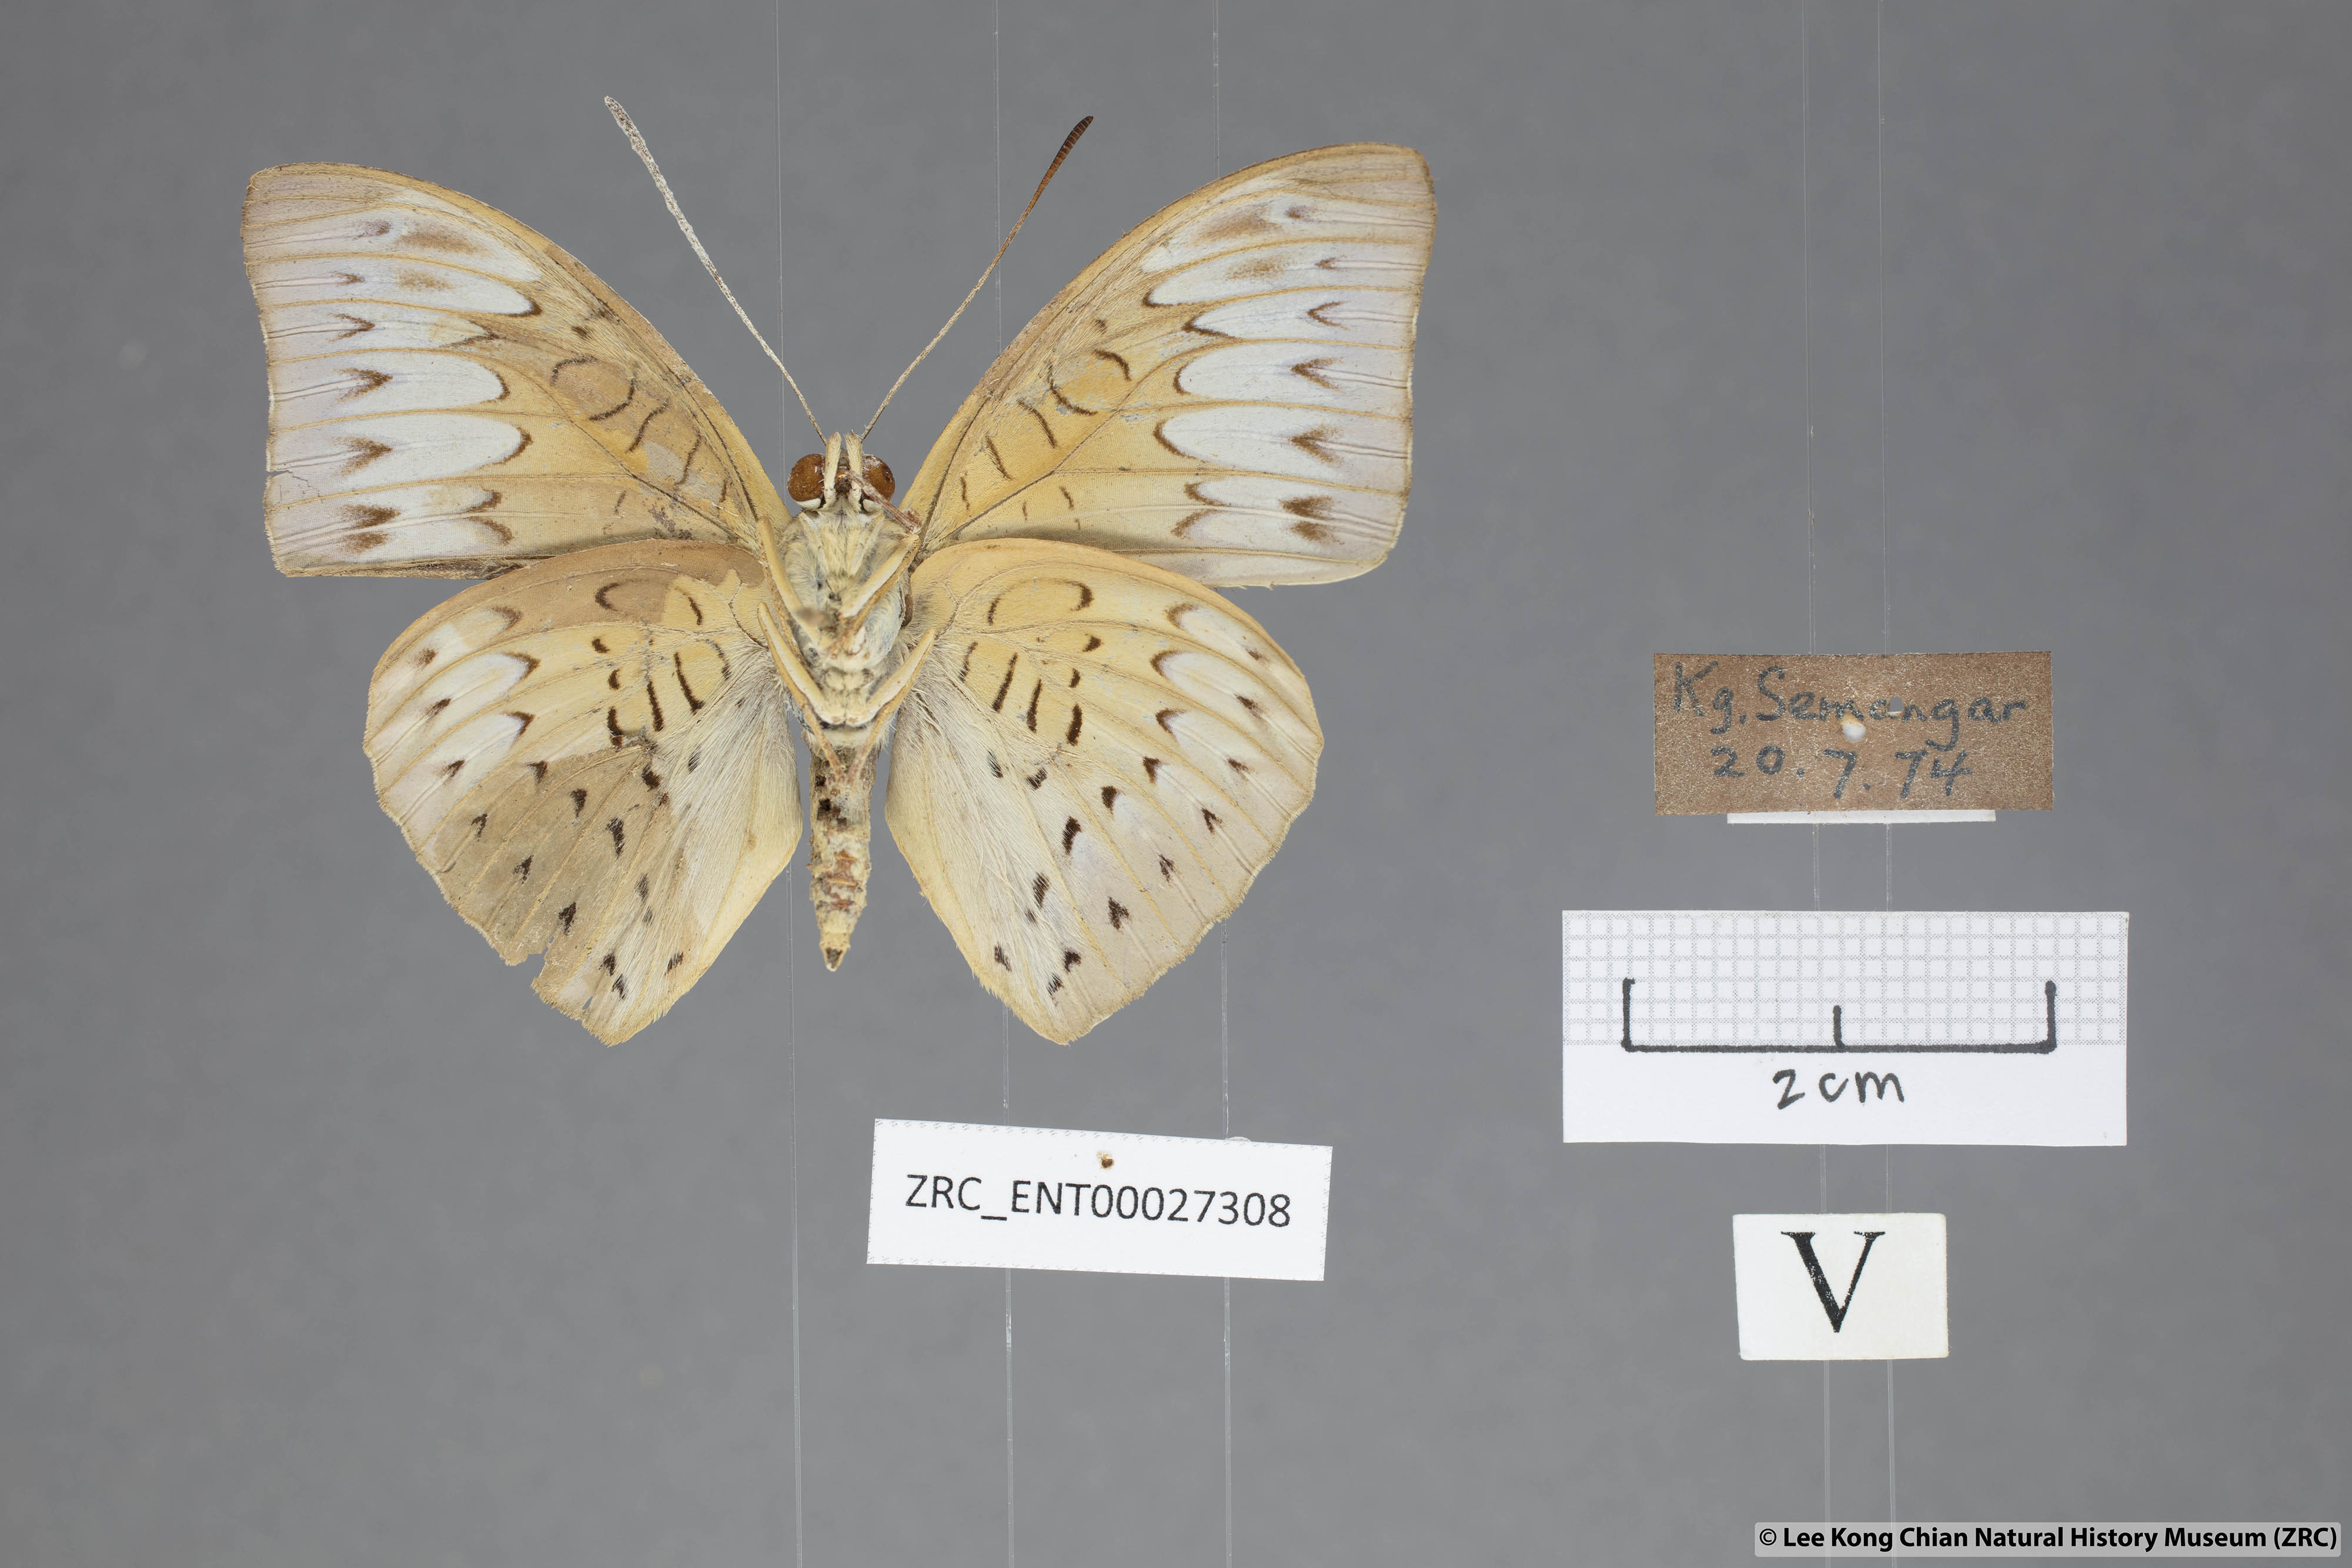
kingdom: Animalia
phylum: Arthropoda
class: Insecta
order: Lepidoptera
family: Nymphalidae
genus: Tanaecia
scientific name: Tanaecia palguna
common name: Long-lined viscount
